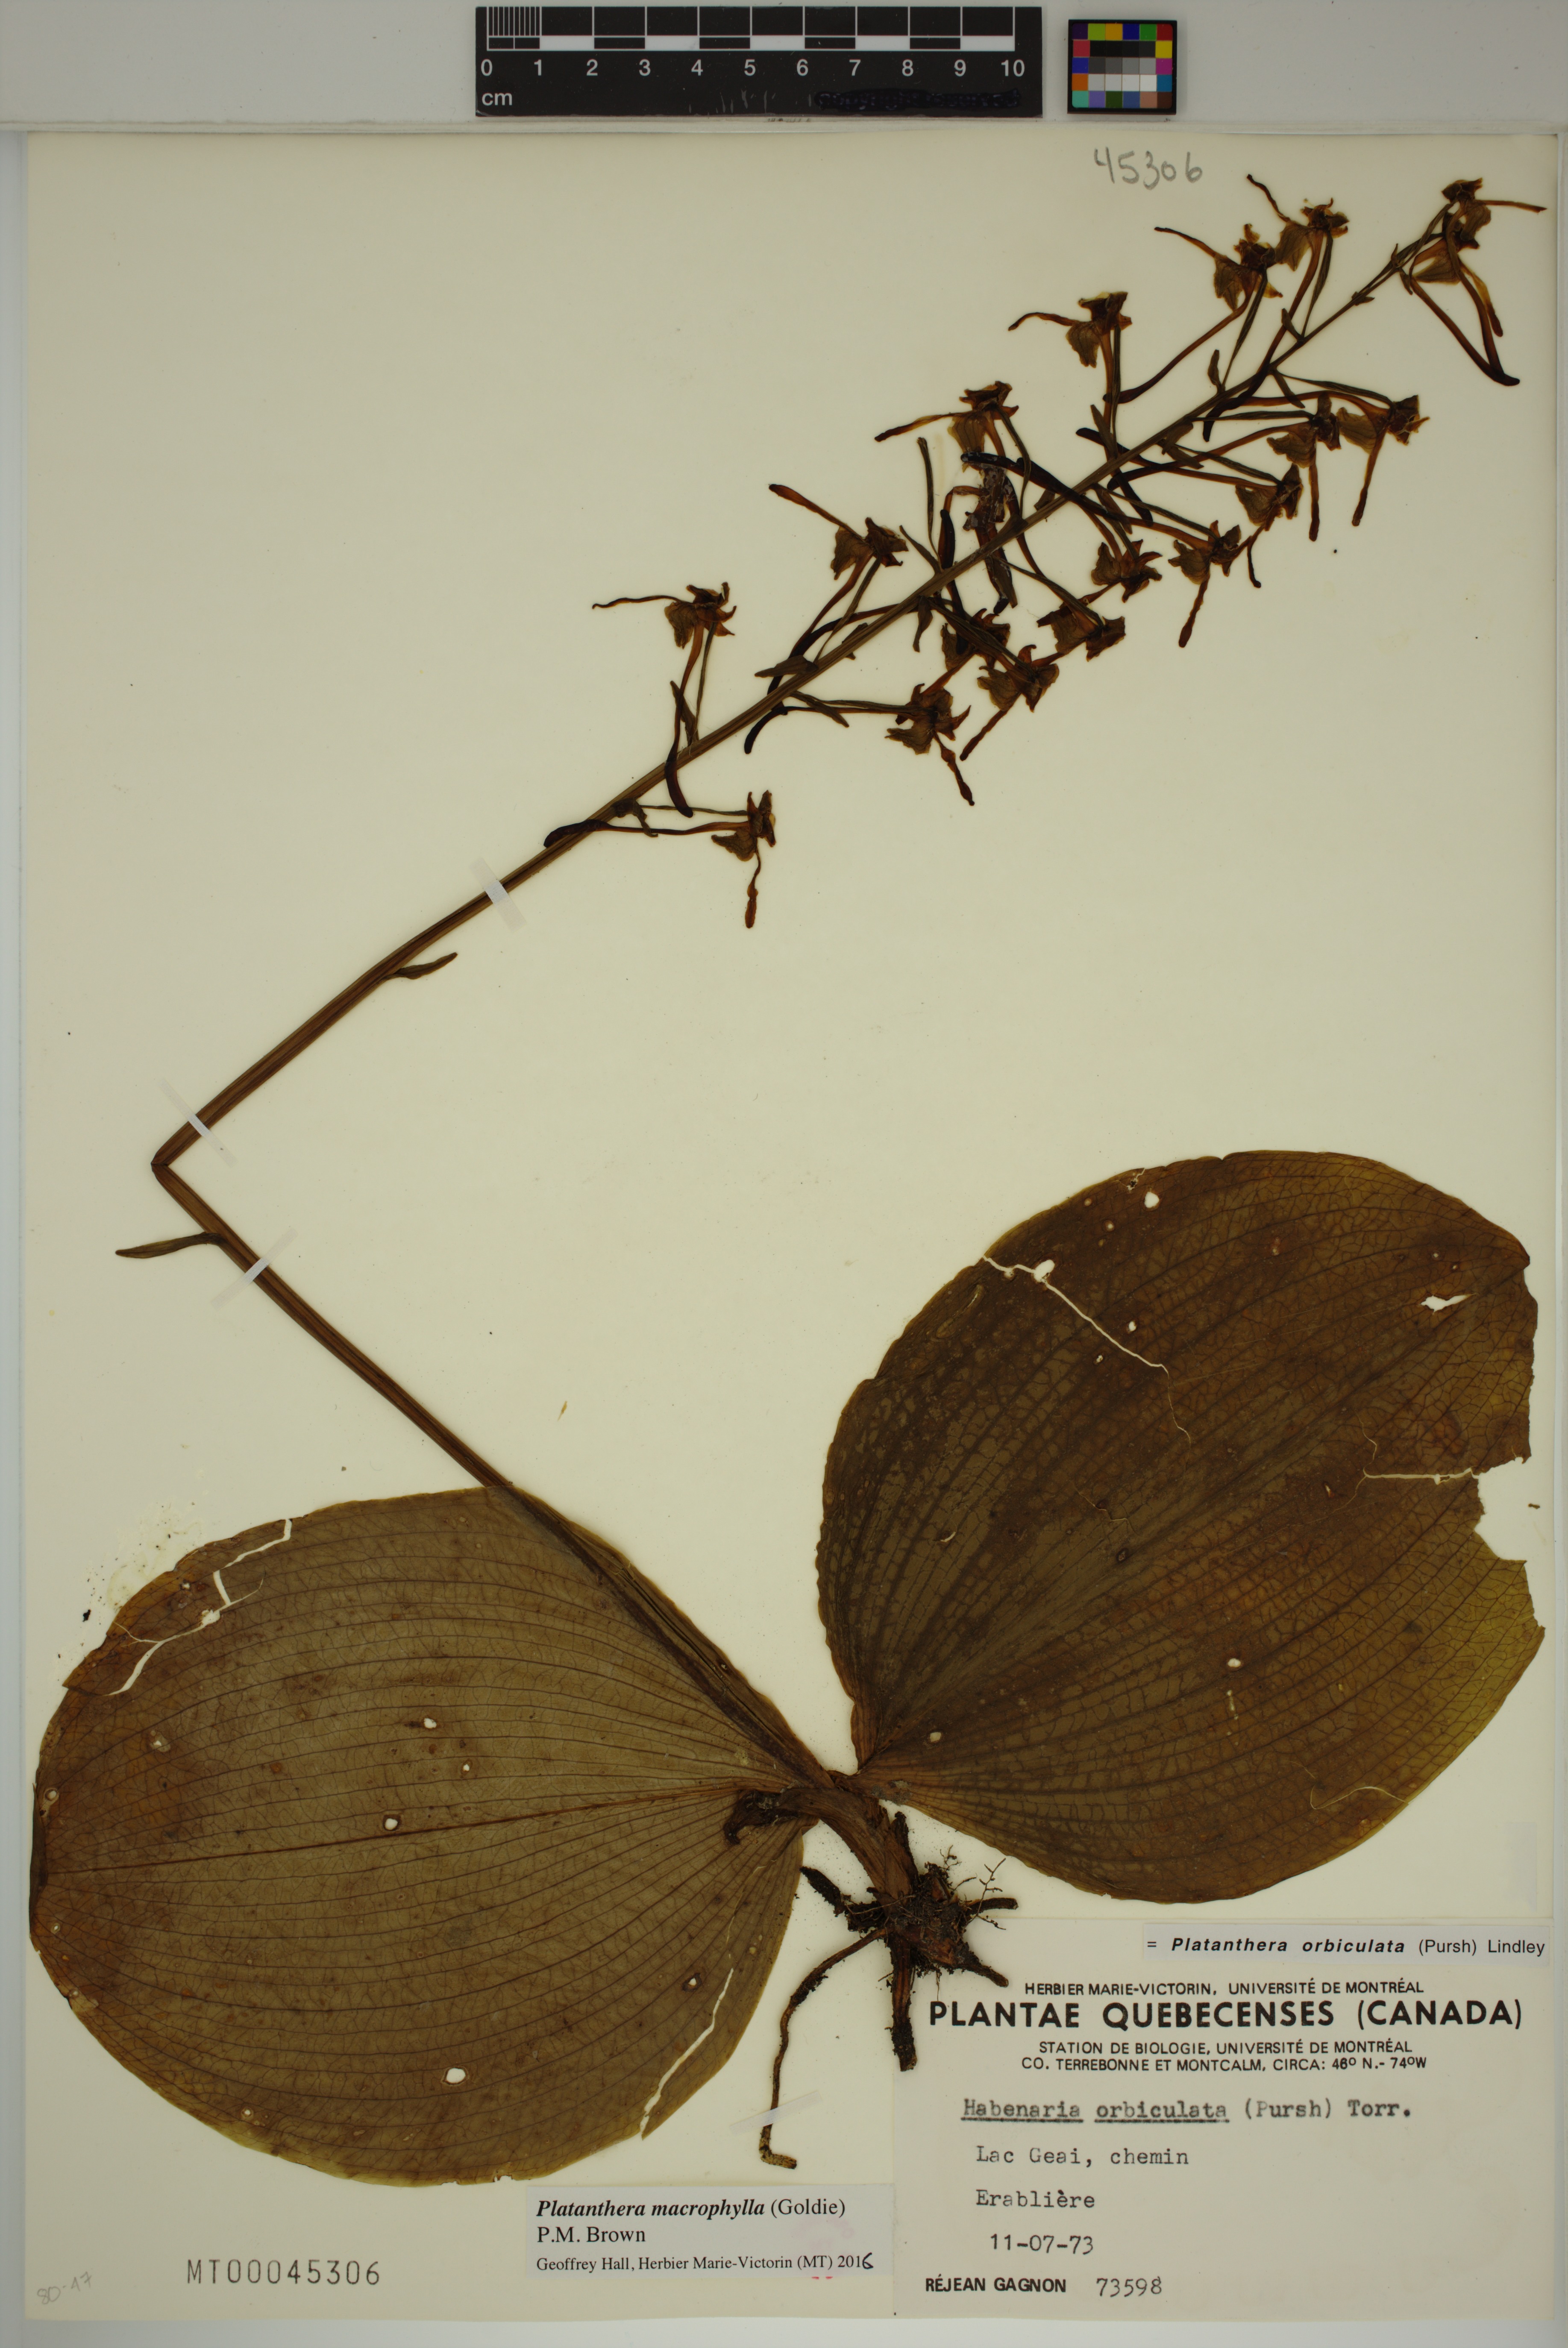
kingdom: Plantae
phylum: Tracheophyta
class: Liliopsida
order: Asparagales
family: Orchidaceae
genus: Platanthera
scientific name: Platanthera orbiculata
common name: Large round-leaved orchid
